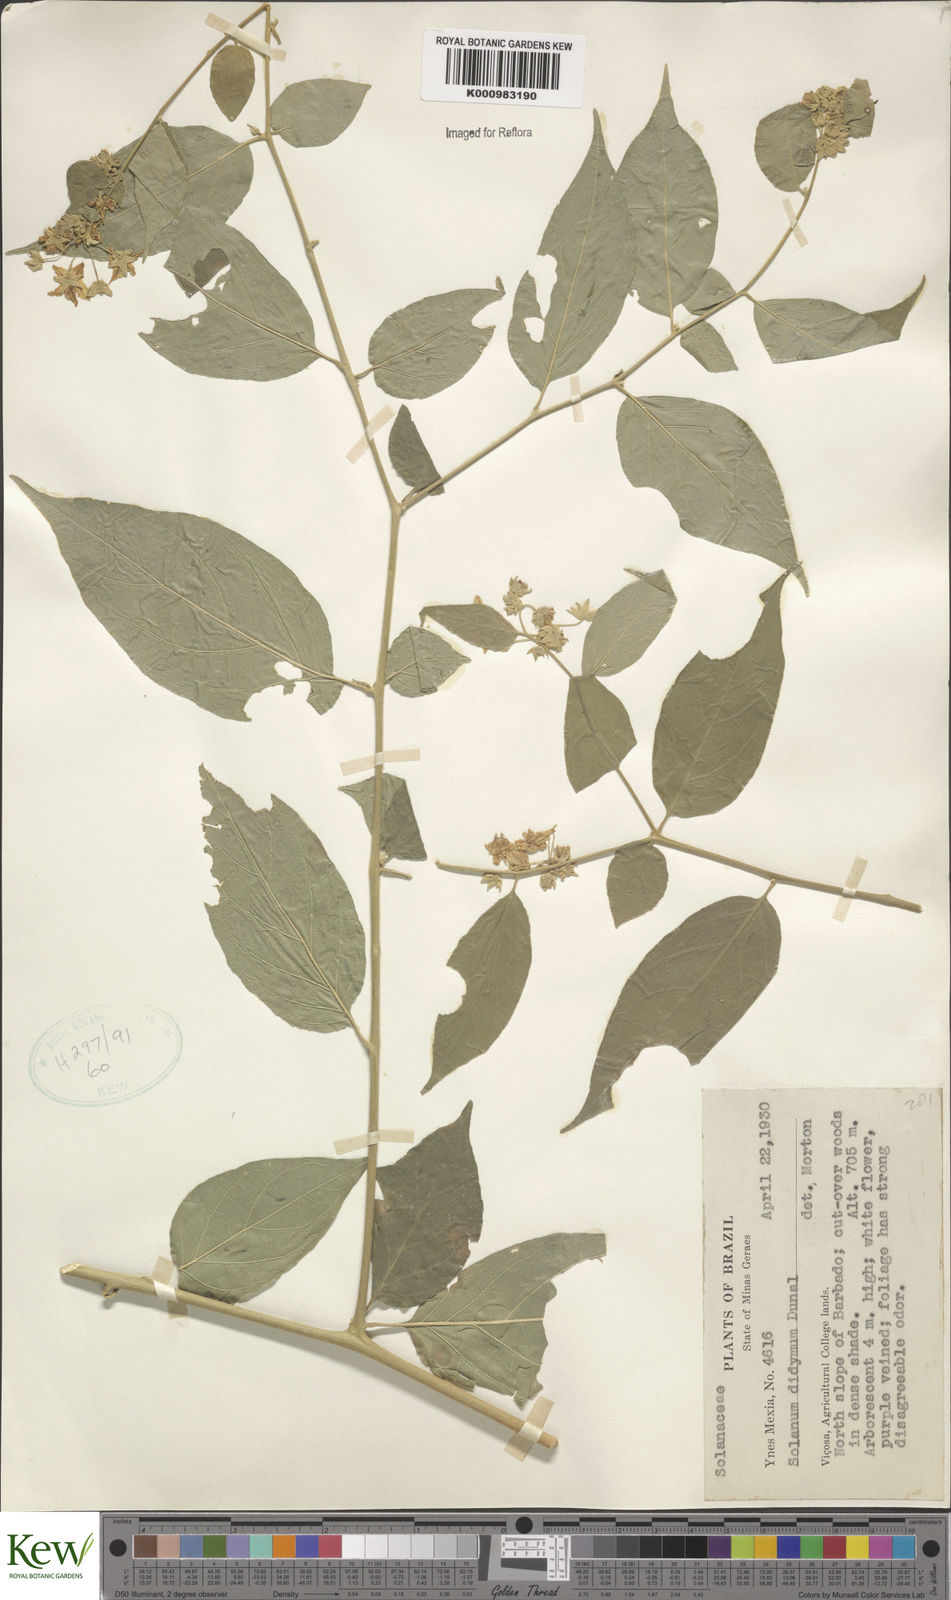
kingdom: Plantae
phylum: Tracheophyta
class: Magnoliopsida
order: Solanales
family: Solanaceae
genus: Solanum
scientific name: Solanum didymum
